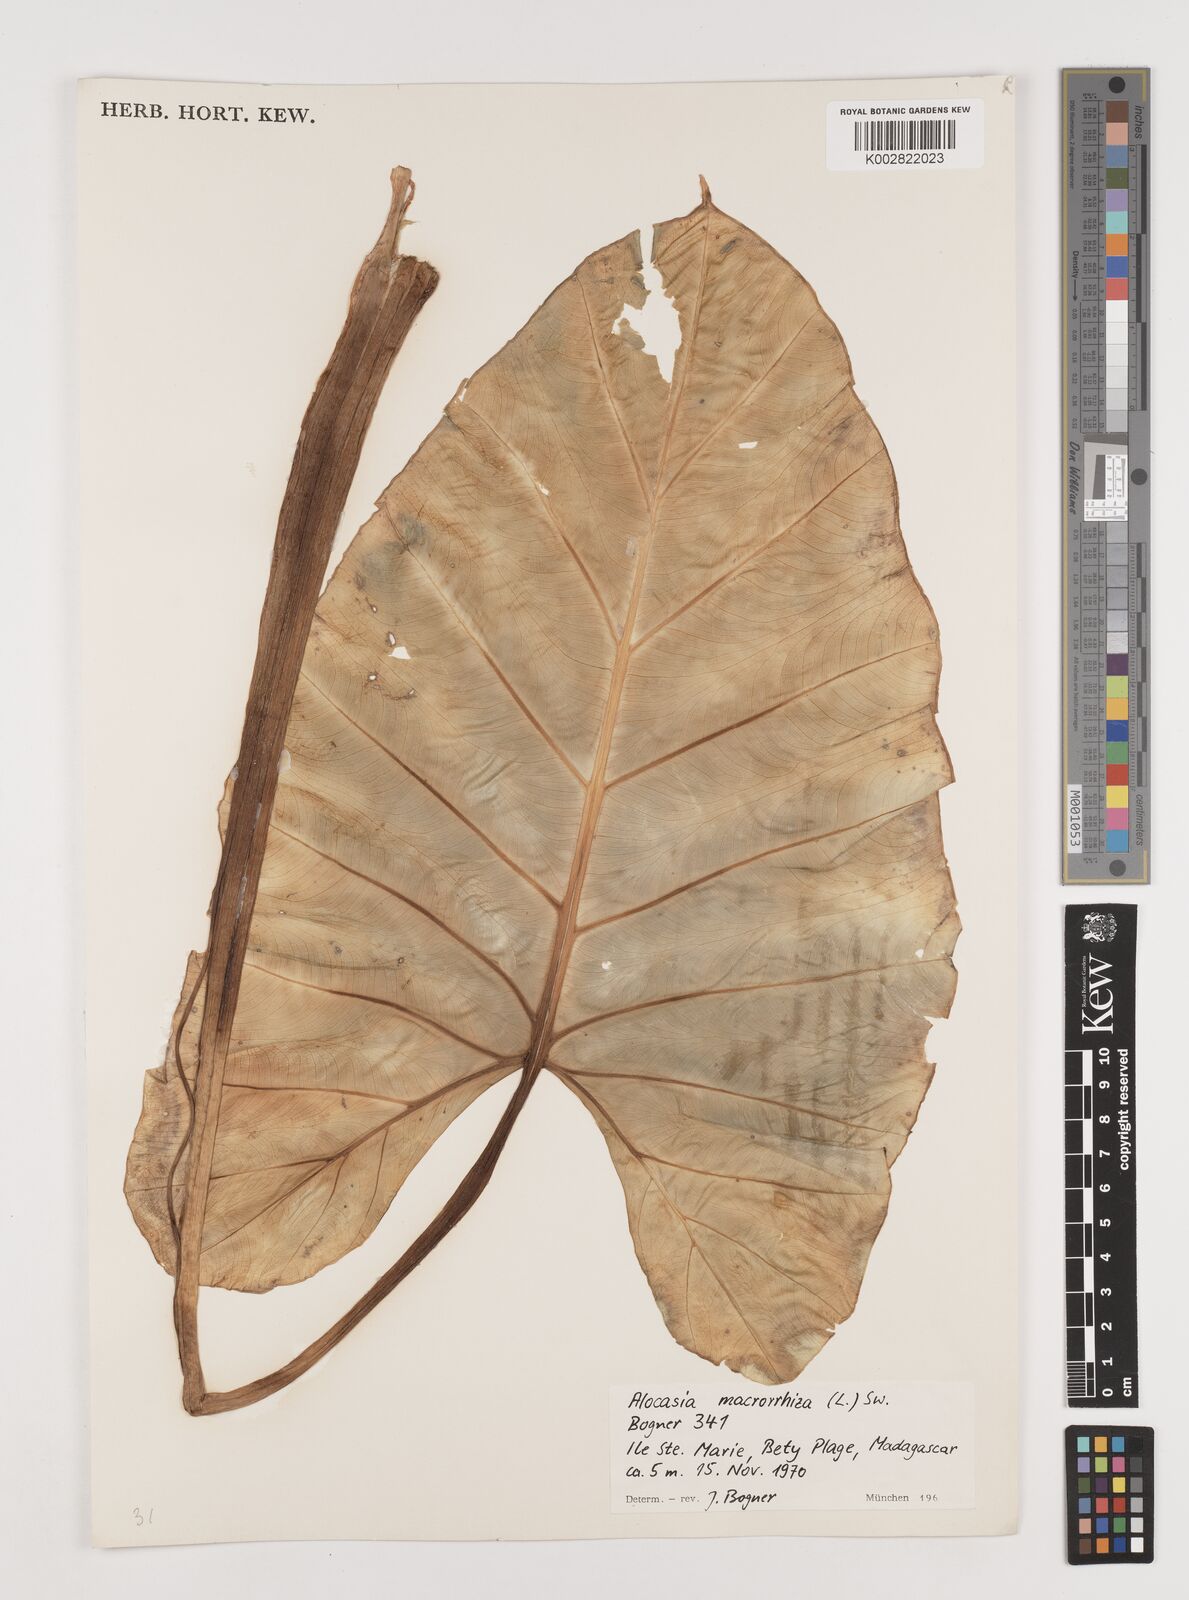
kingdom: Plantae
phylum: Tracheophyta
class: Liliopsida
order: Alismatales
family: Araceae
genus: Alocasia
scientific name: Alocasia macrorrhizos
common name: Giant taro
